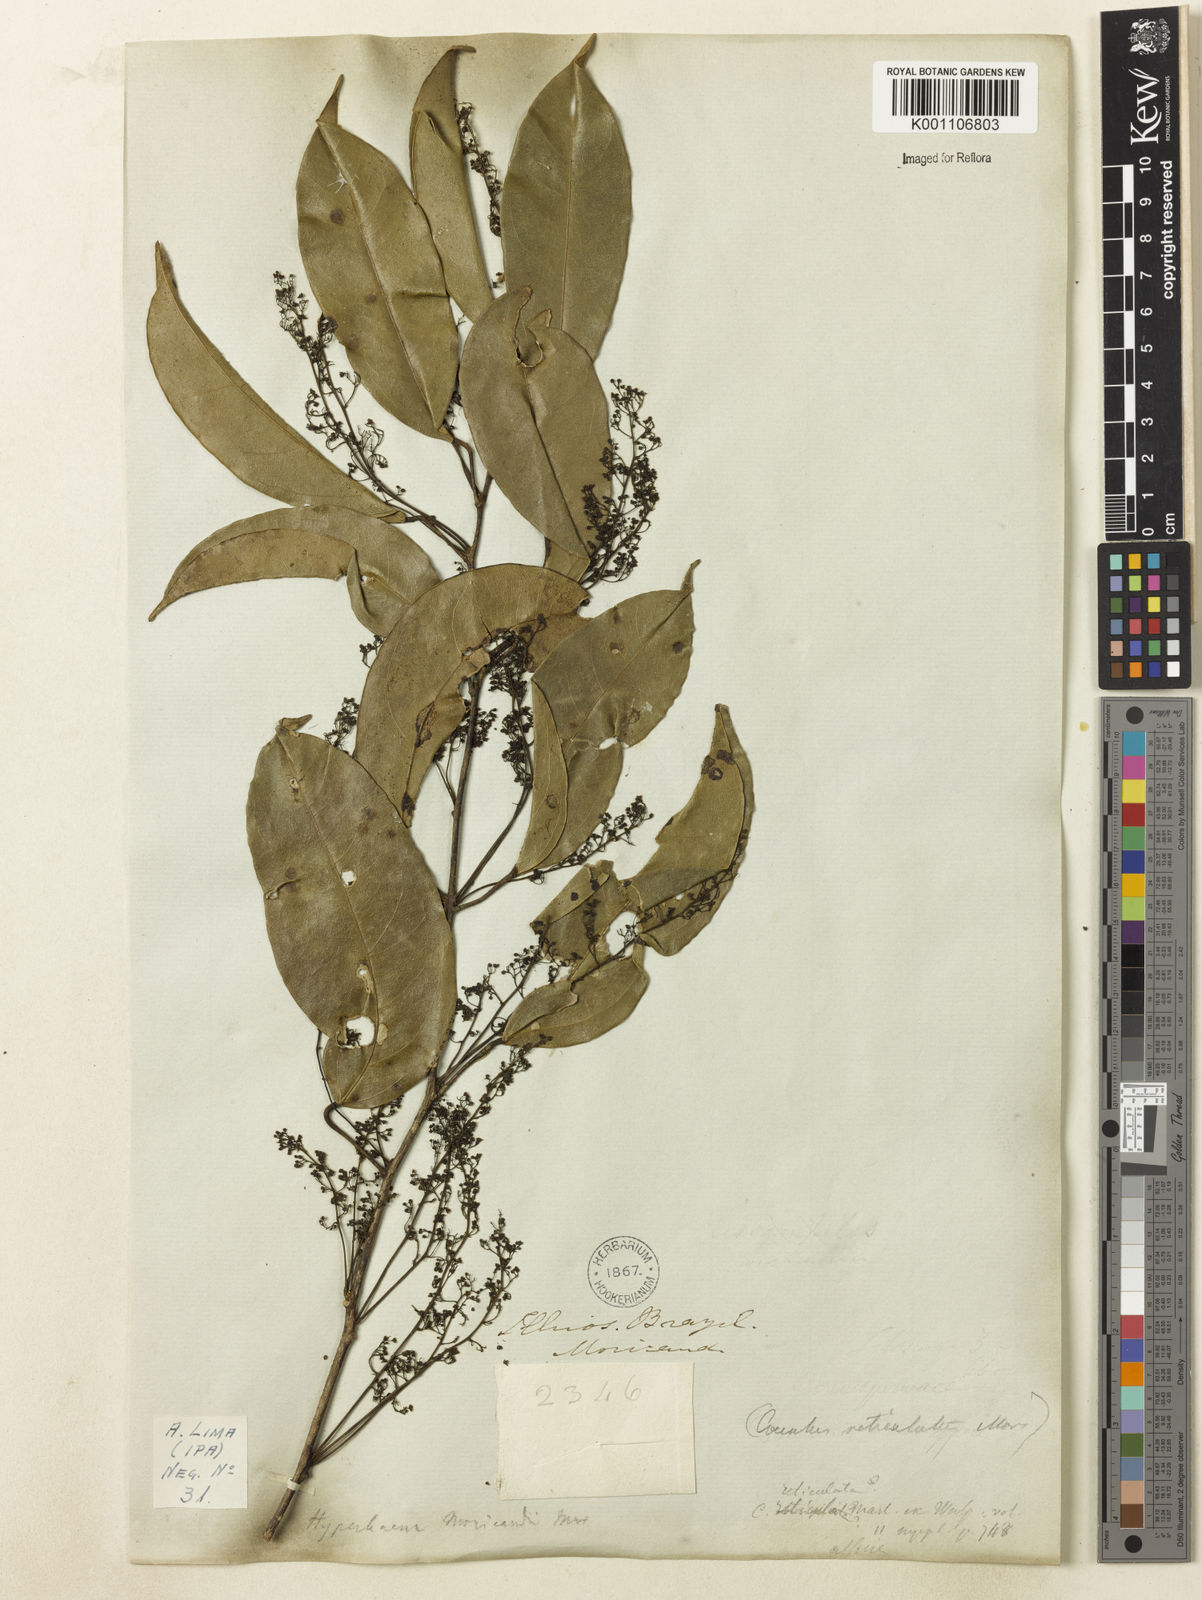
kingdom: Plantae
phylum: Tracheophyta
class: Magnoliopsida
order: Ranunculales
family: Menispermaceae
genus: Hyperbaena
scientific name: Hyperbaena domingensis
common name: Forest snakevine
